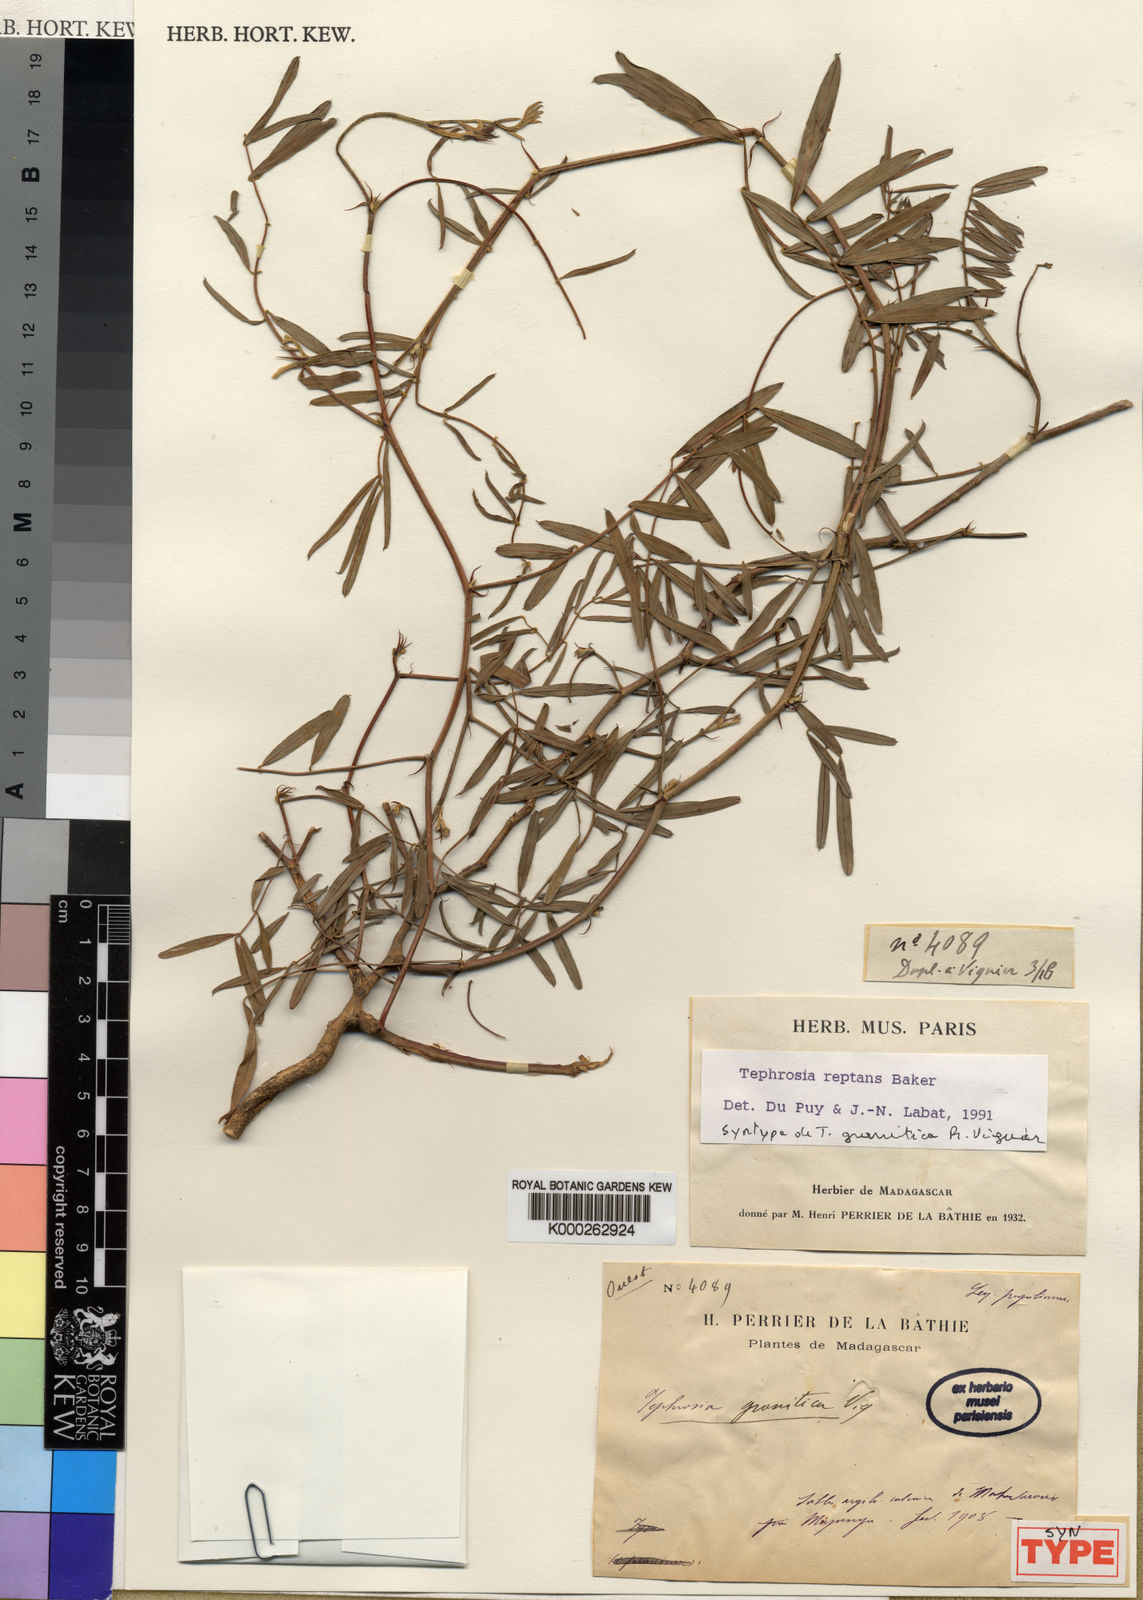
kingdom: Plantae
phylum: Tracheophyta
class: Magnoliopsida
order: Fabales
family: Fabaceae
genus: Tephrosia
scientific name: Tephrosia reptans
